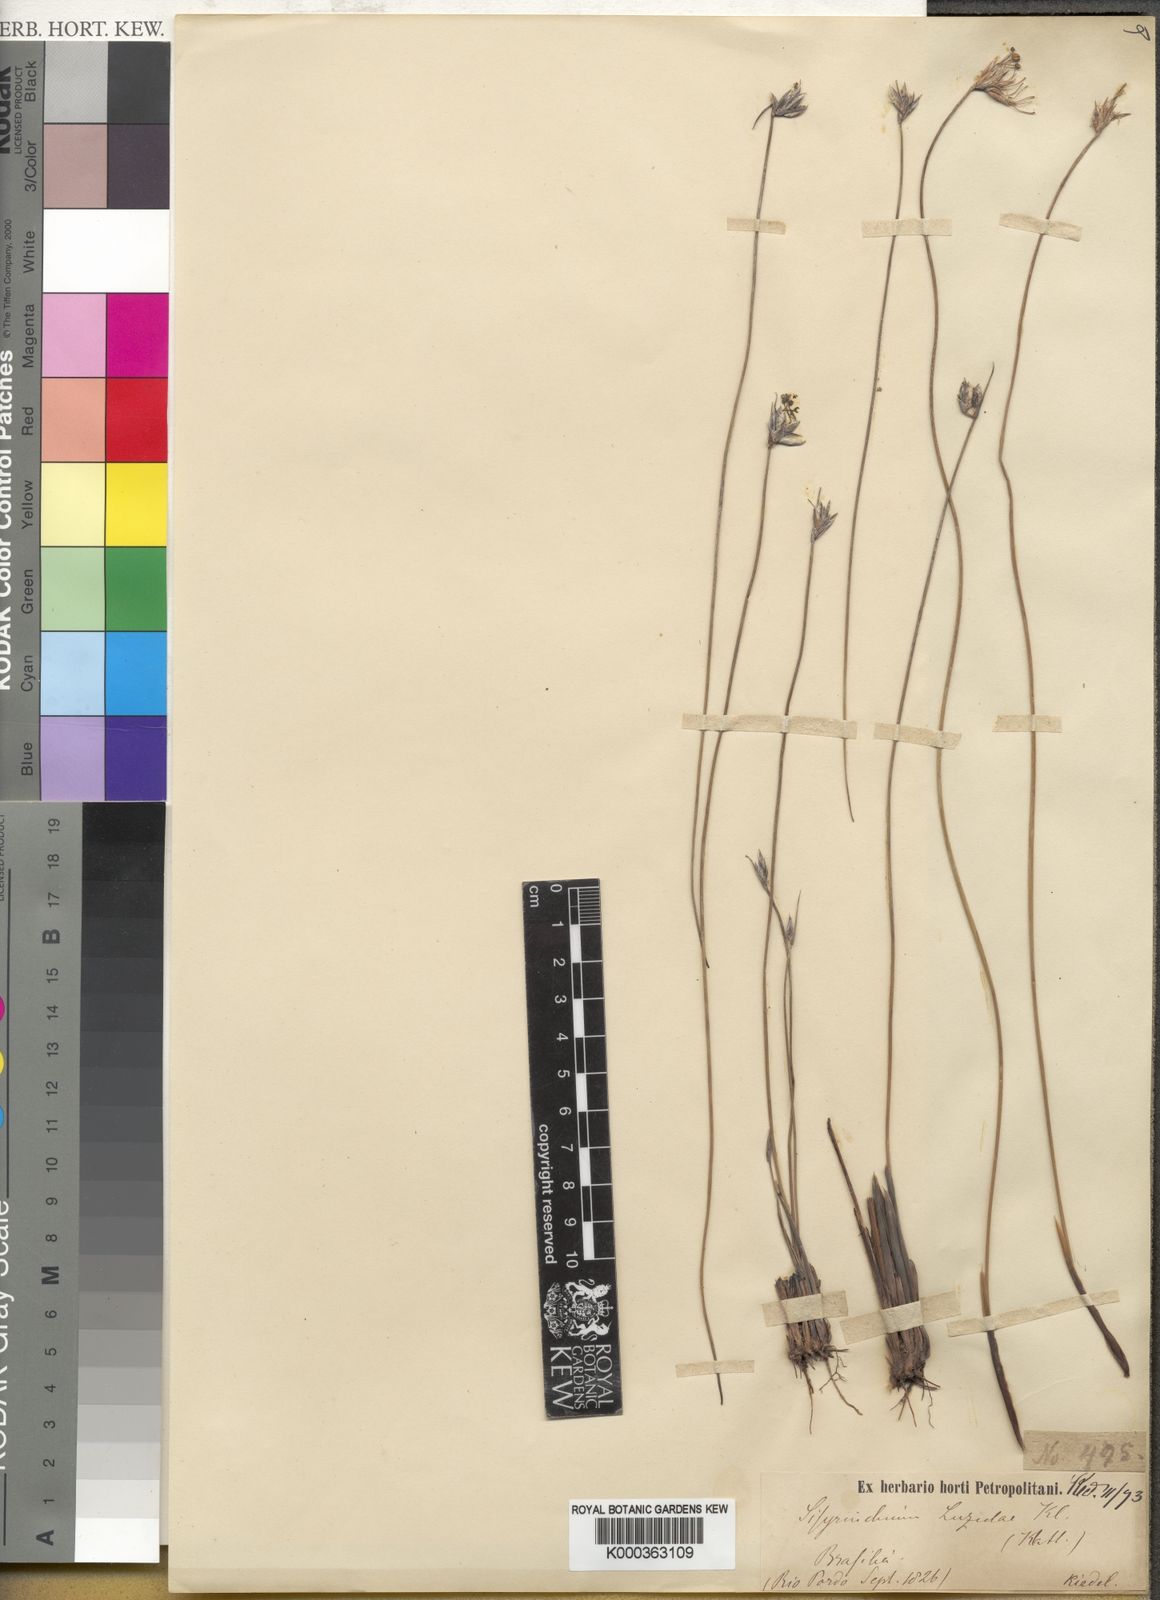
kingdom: Plantae
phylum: Tracheophyta
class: Liliopsida
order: Asparagales
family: Iridaceae
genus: Sisyrinchium
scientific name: Sisyrinchium luzula
